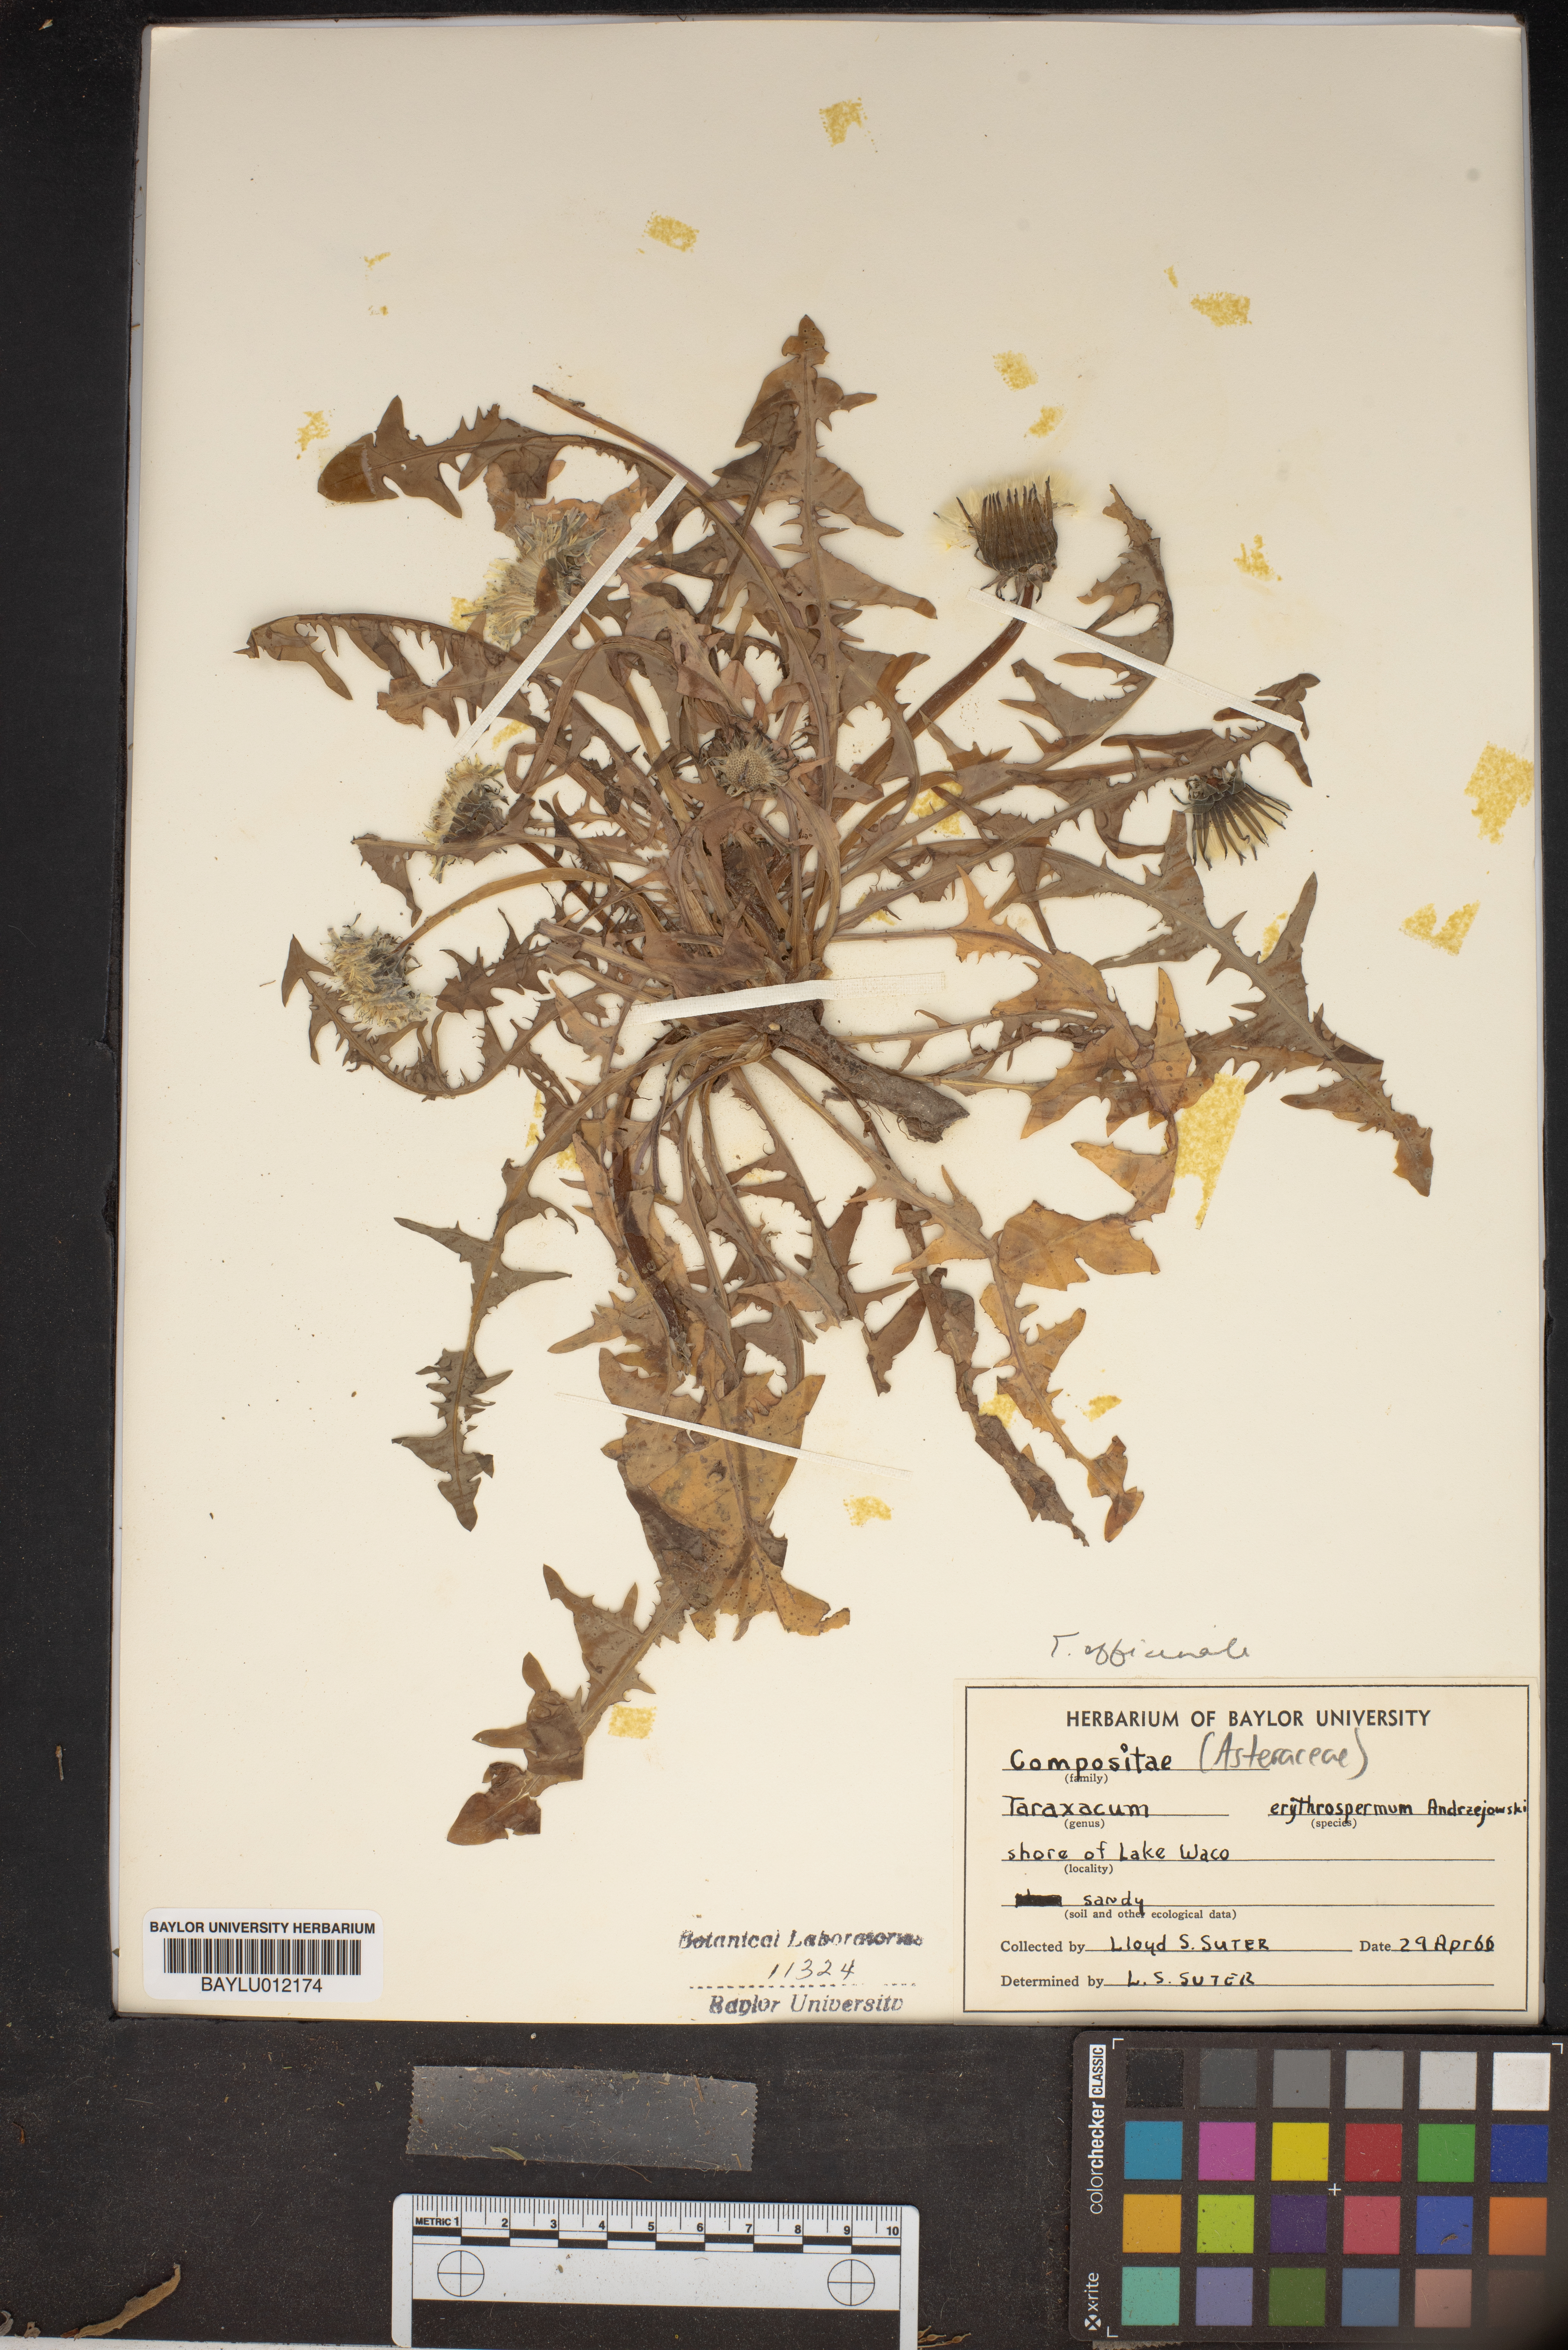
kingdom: Plantae
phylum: Tracheophyta
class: Magnoliopsida
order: Asterales
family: Asteraceae
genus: Taraxacum
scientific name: Taraxacum erythrospermum
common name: Rock dandelion
